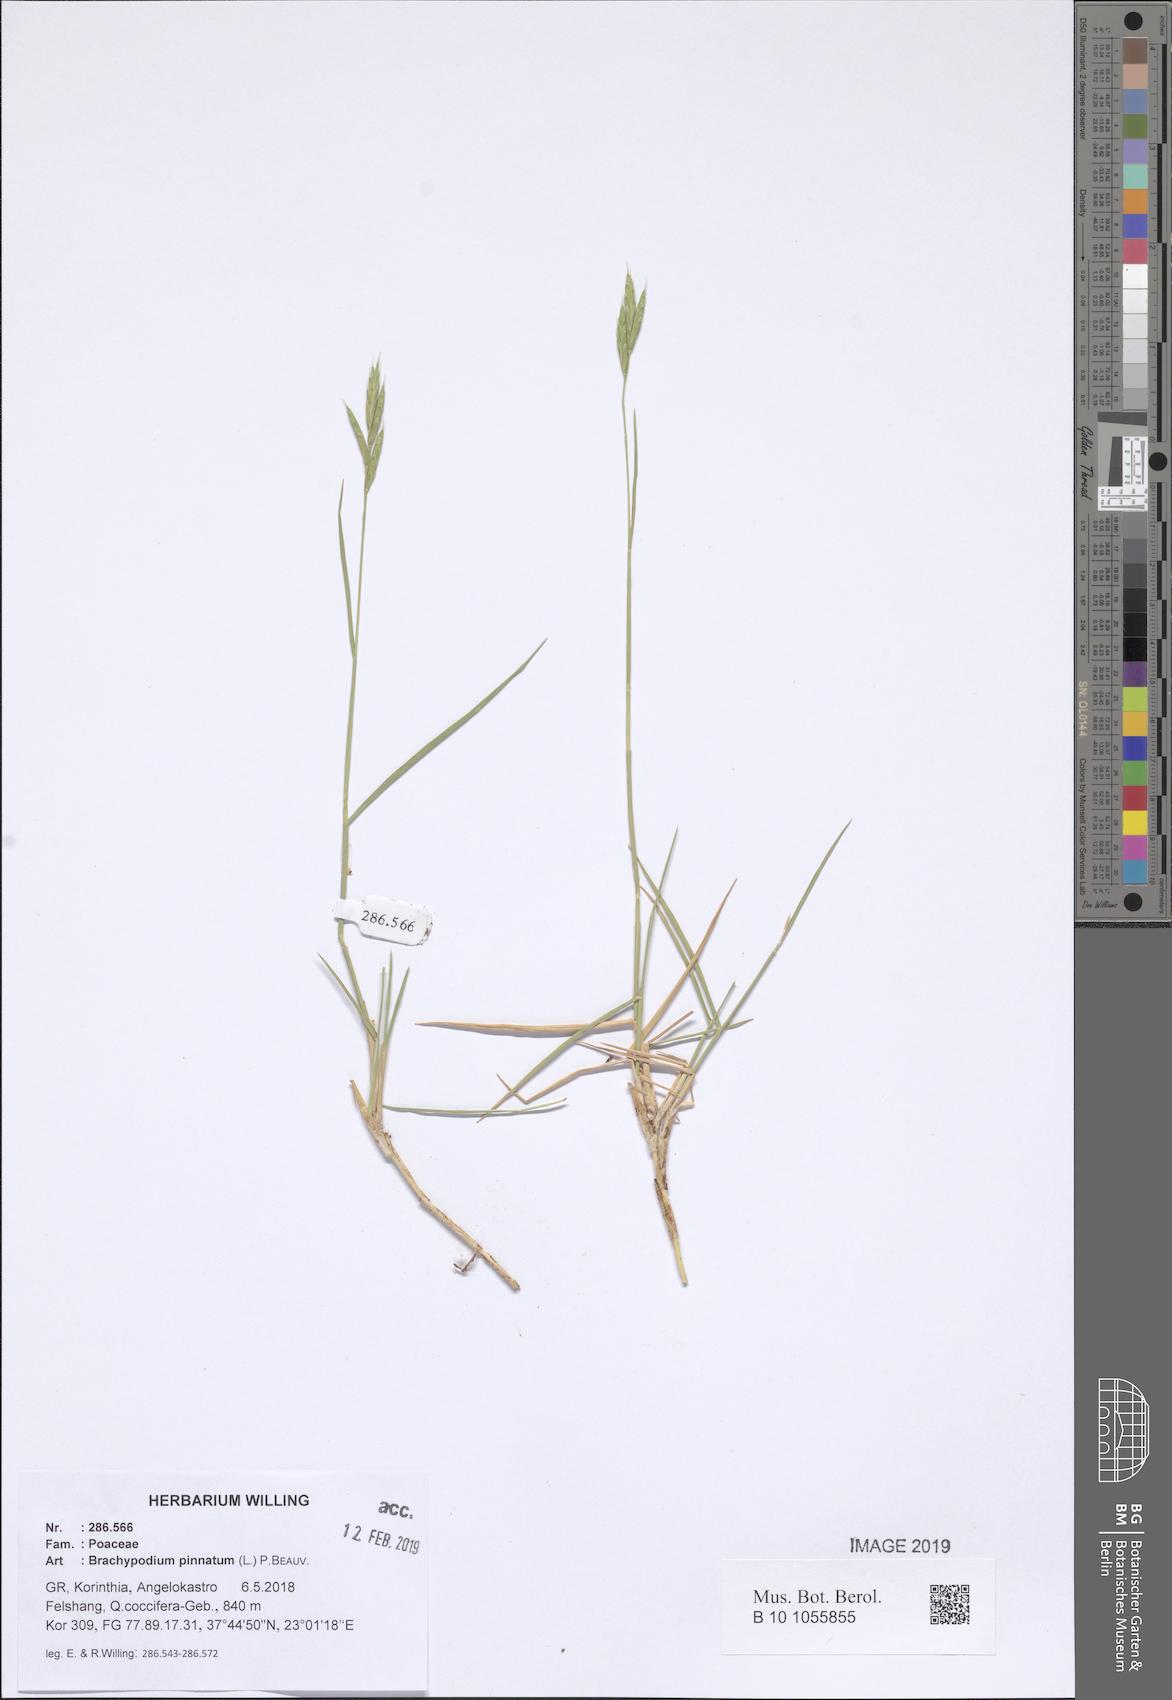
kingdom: Plantae
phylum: Tracheophyta
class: Liliopsida
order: Poales
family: Poaceae
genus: Brachypodium
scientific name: Brachypodium pinnatum
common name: Tor grass
